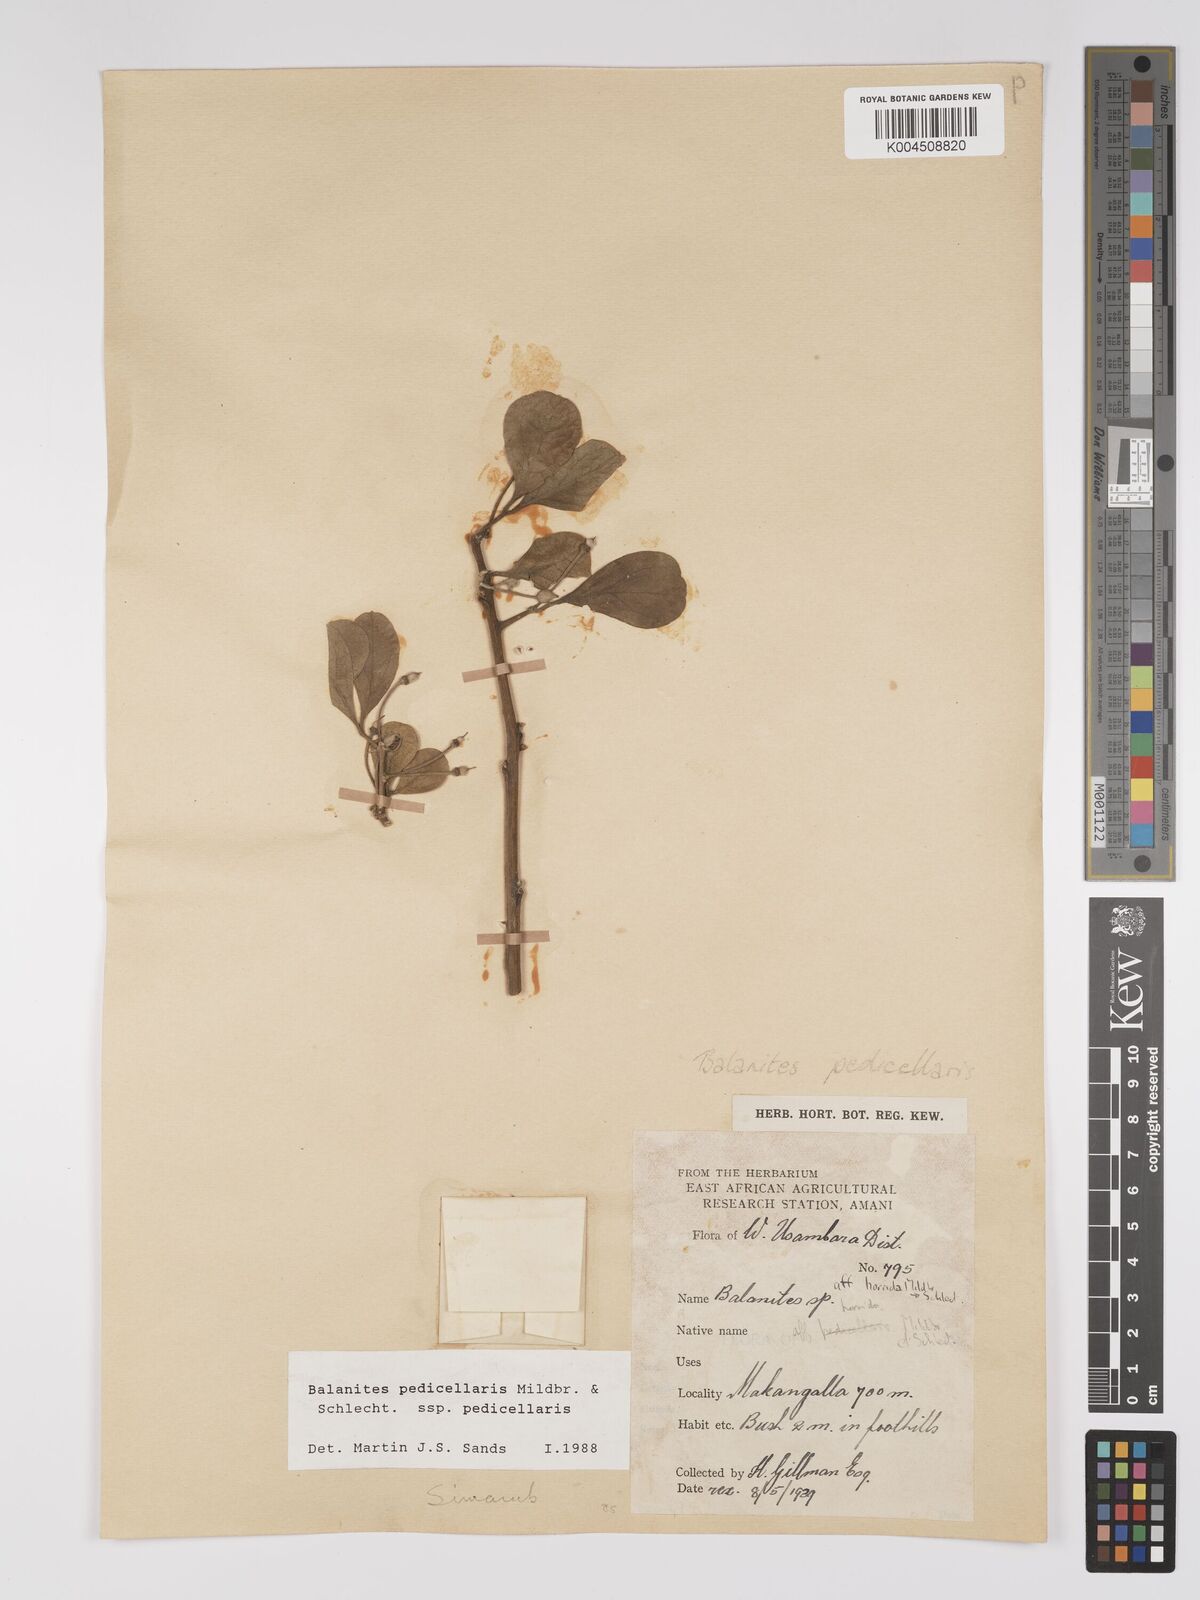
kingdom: Plantae
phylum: Tracheophyta
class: Magnoliopsida
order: Zygophyllales
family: Zygophyllaceae
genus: Balanites
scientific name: Balanites pedicellaris
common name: Small green-thorn
